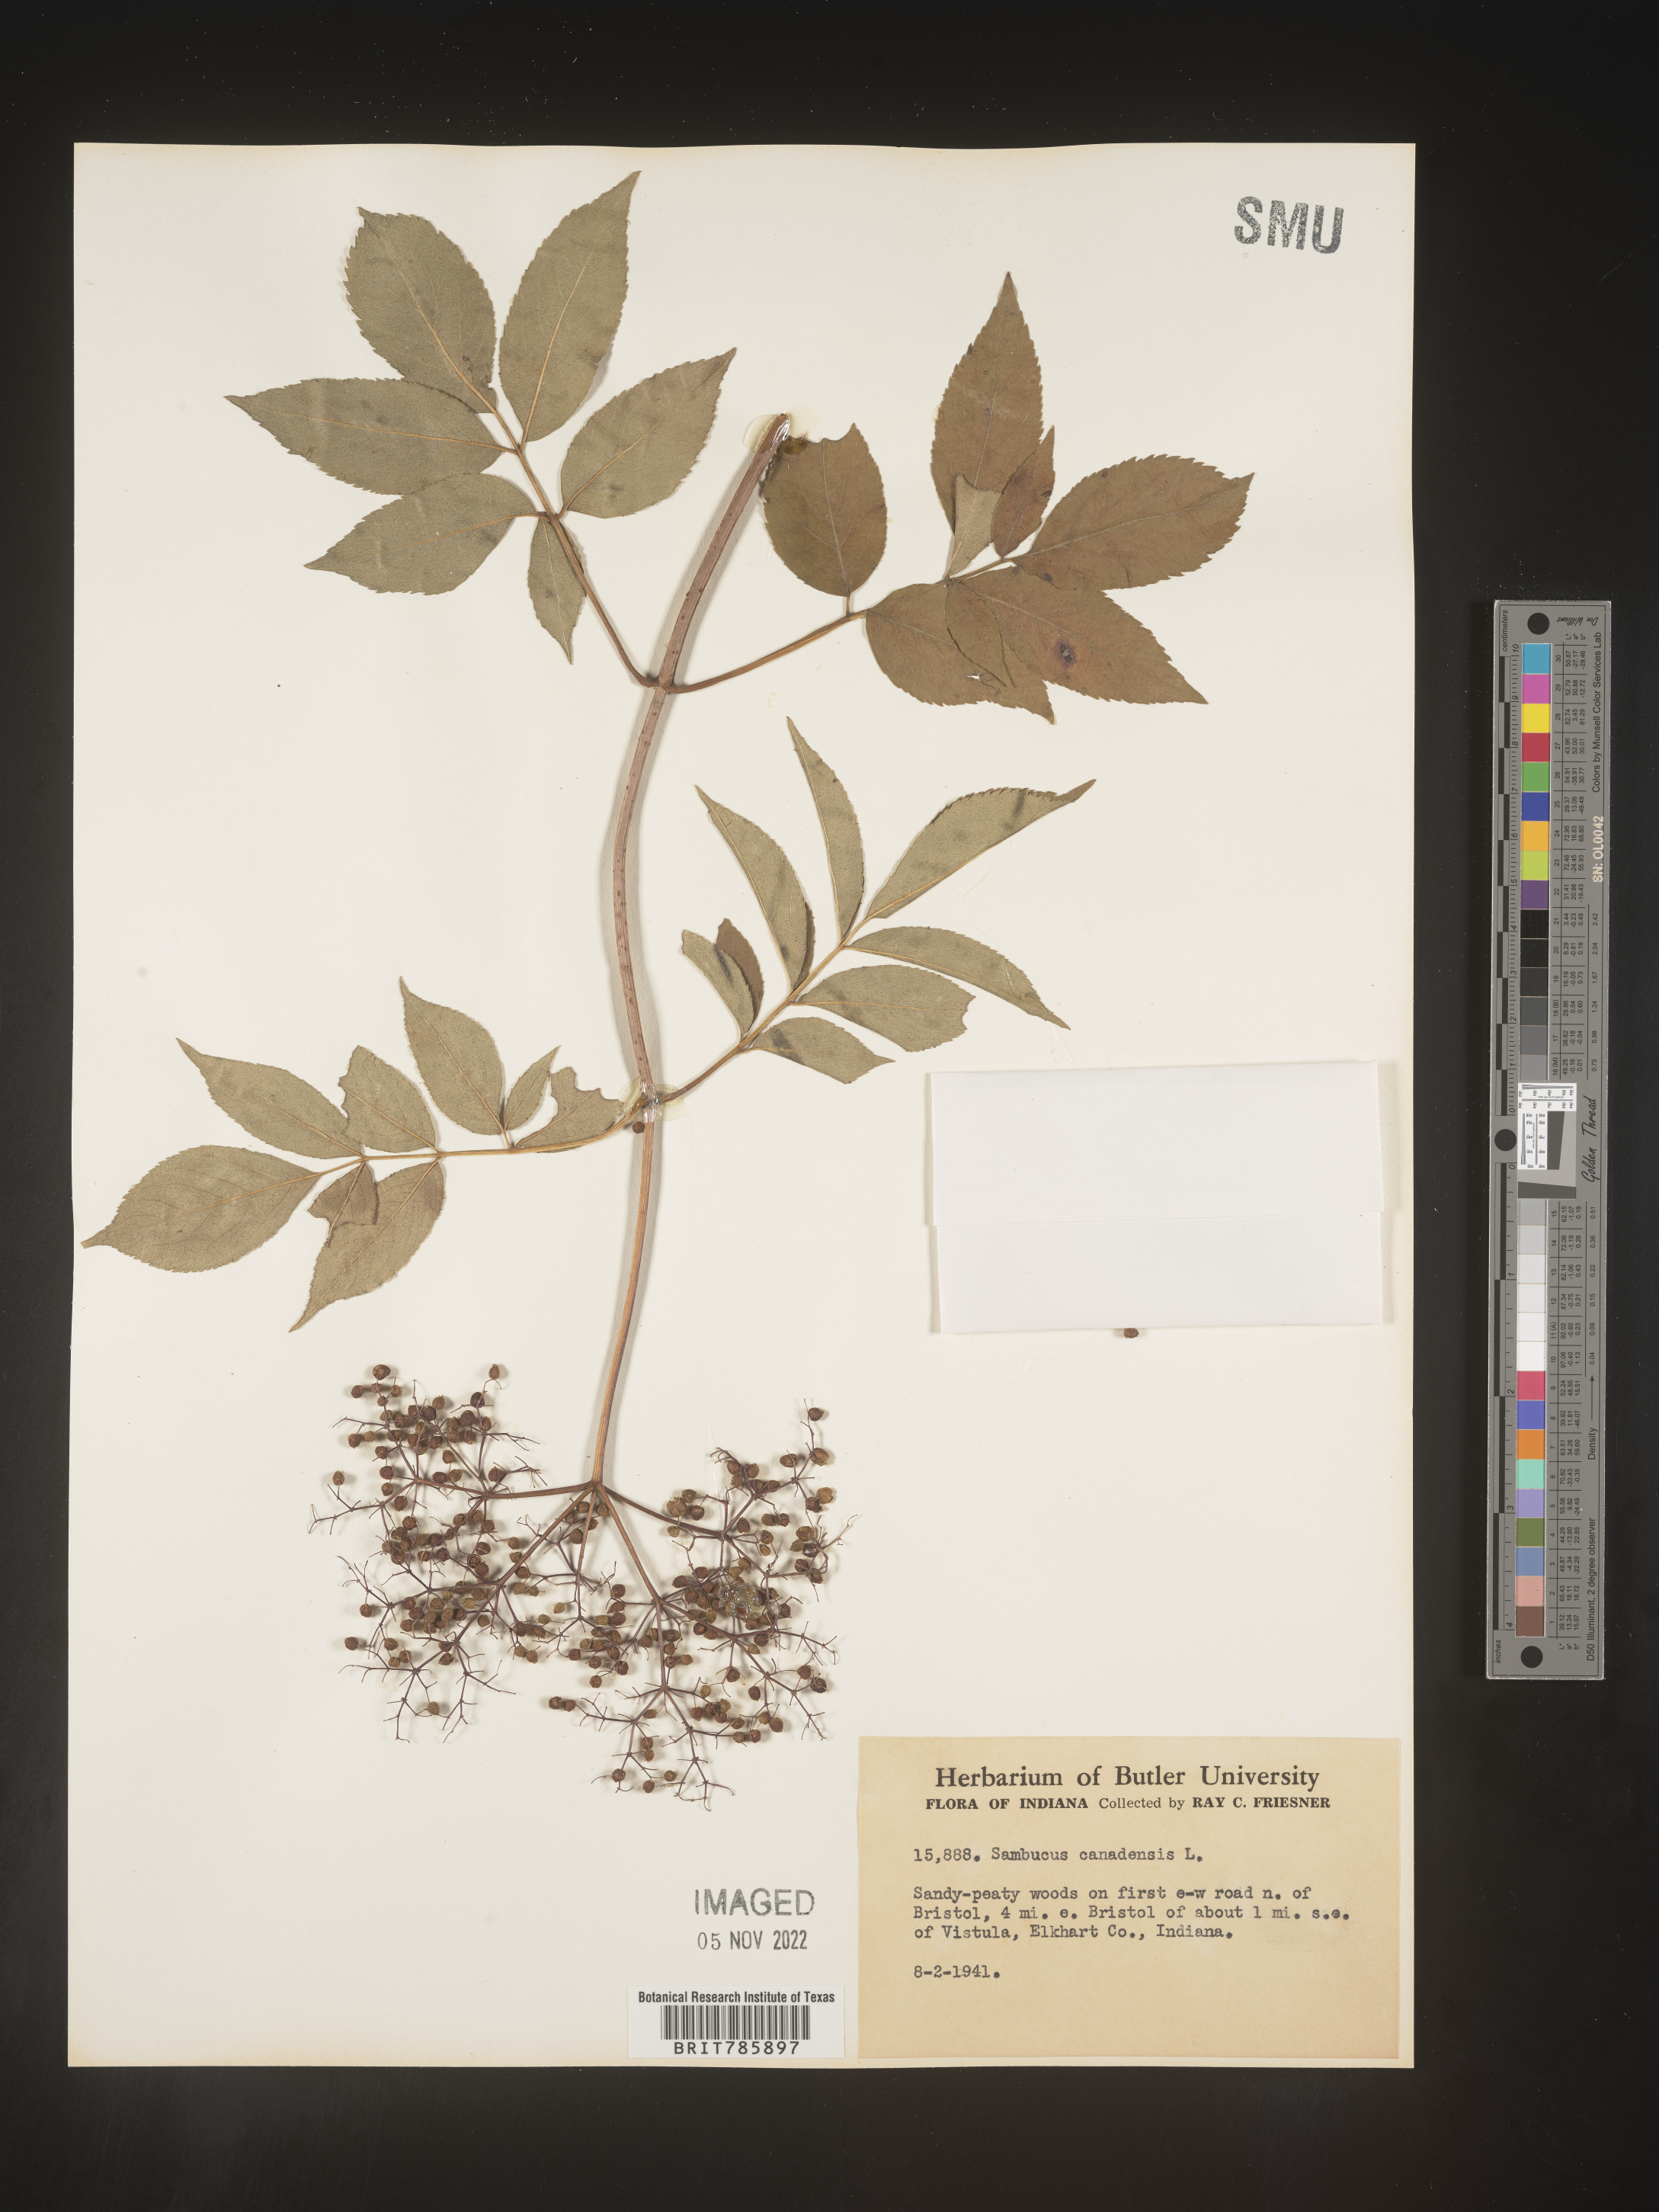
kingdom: Plantae
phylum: Tracheophyta
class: Magnoliopsida
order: Dipsacales
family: Viburnaceae
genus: Sambucus
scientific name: Sambucus nigra
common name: Elder
